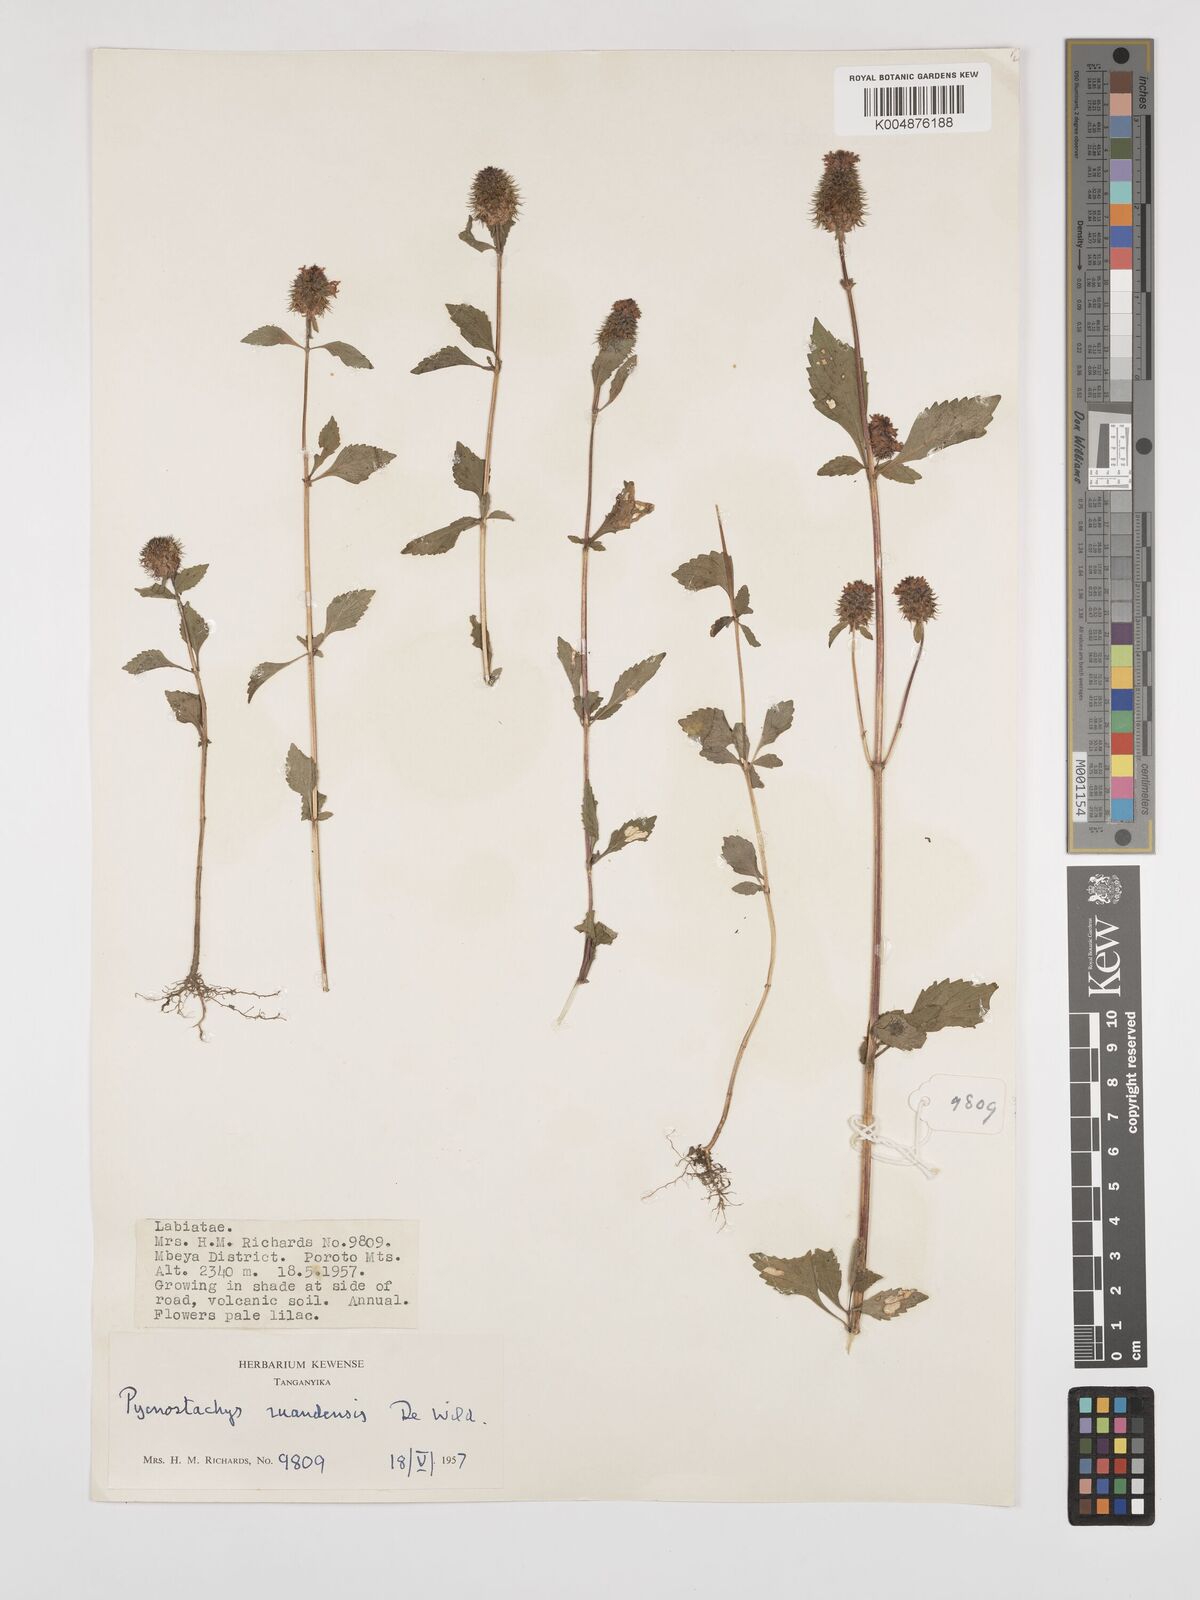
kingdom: Plantae
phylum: Tracheophyta
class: Magnoliopsida
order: Lamiales
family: Lamiaceae
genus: Coleus
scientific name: Coleus ruandensis
